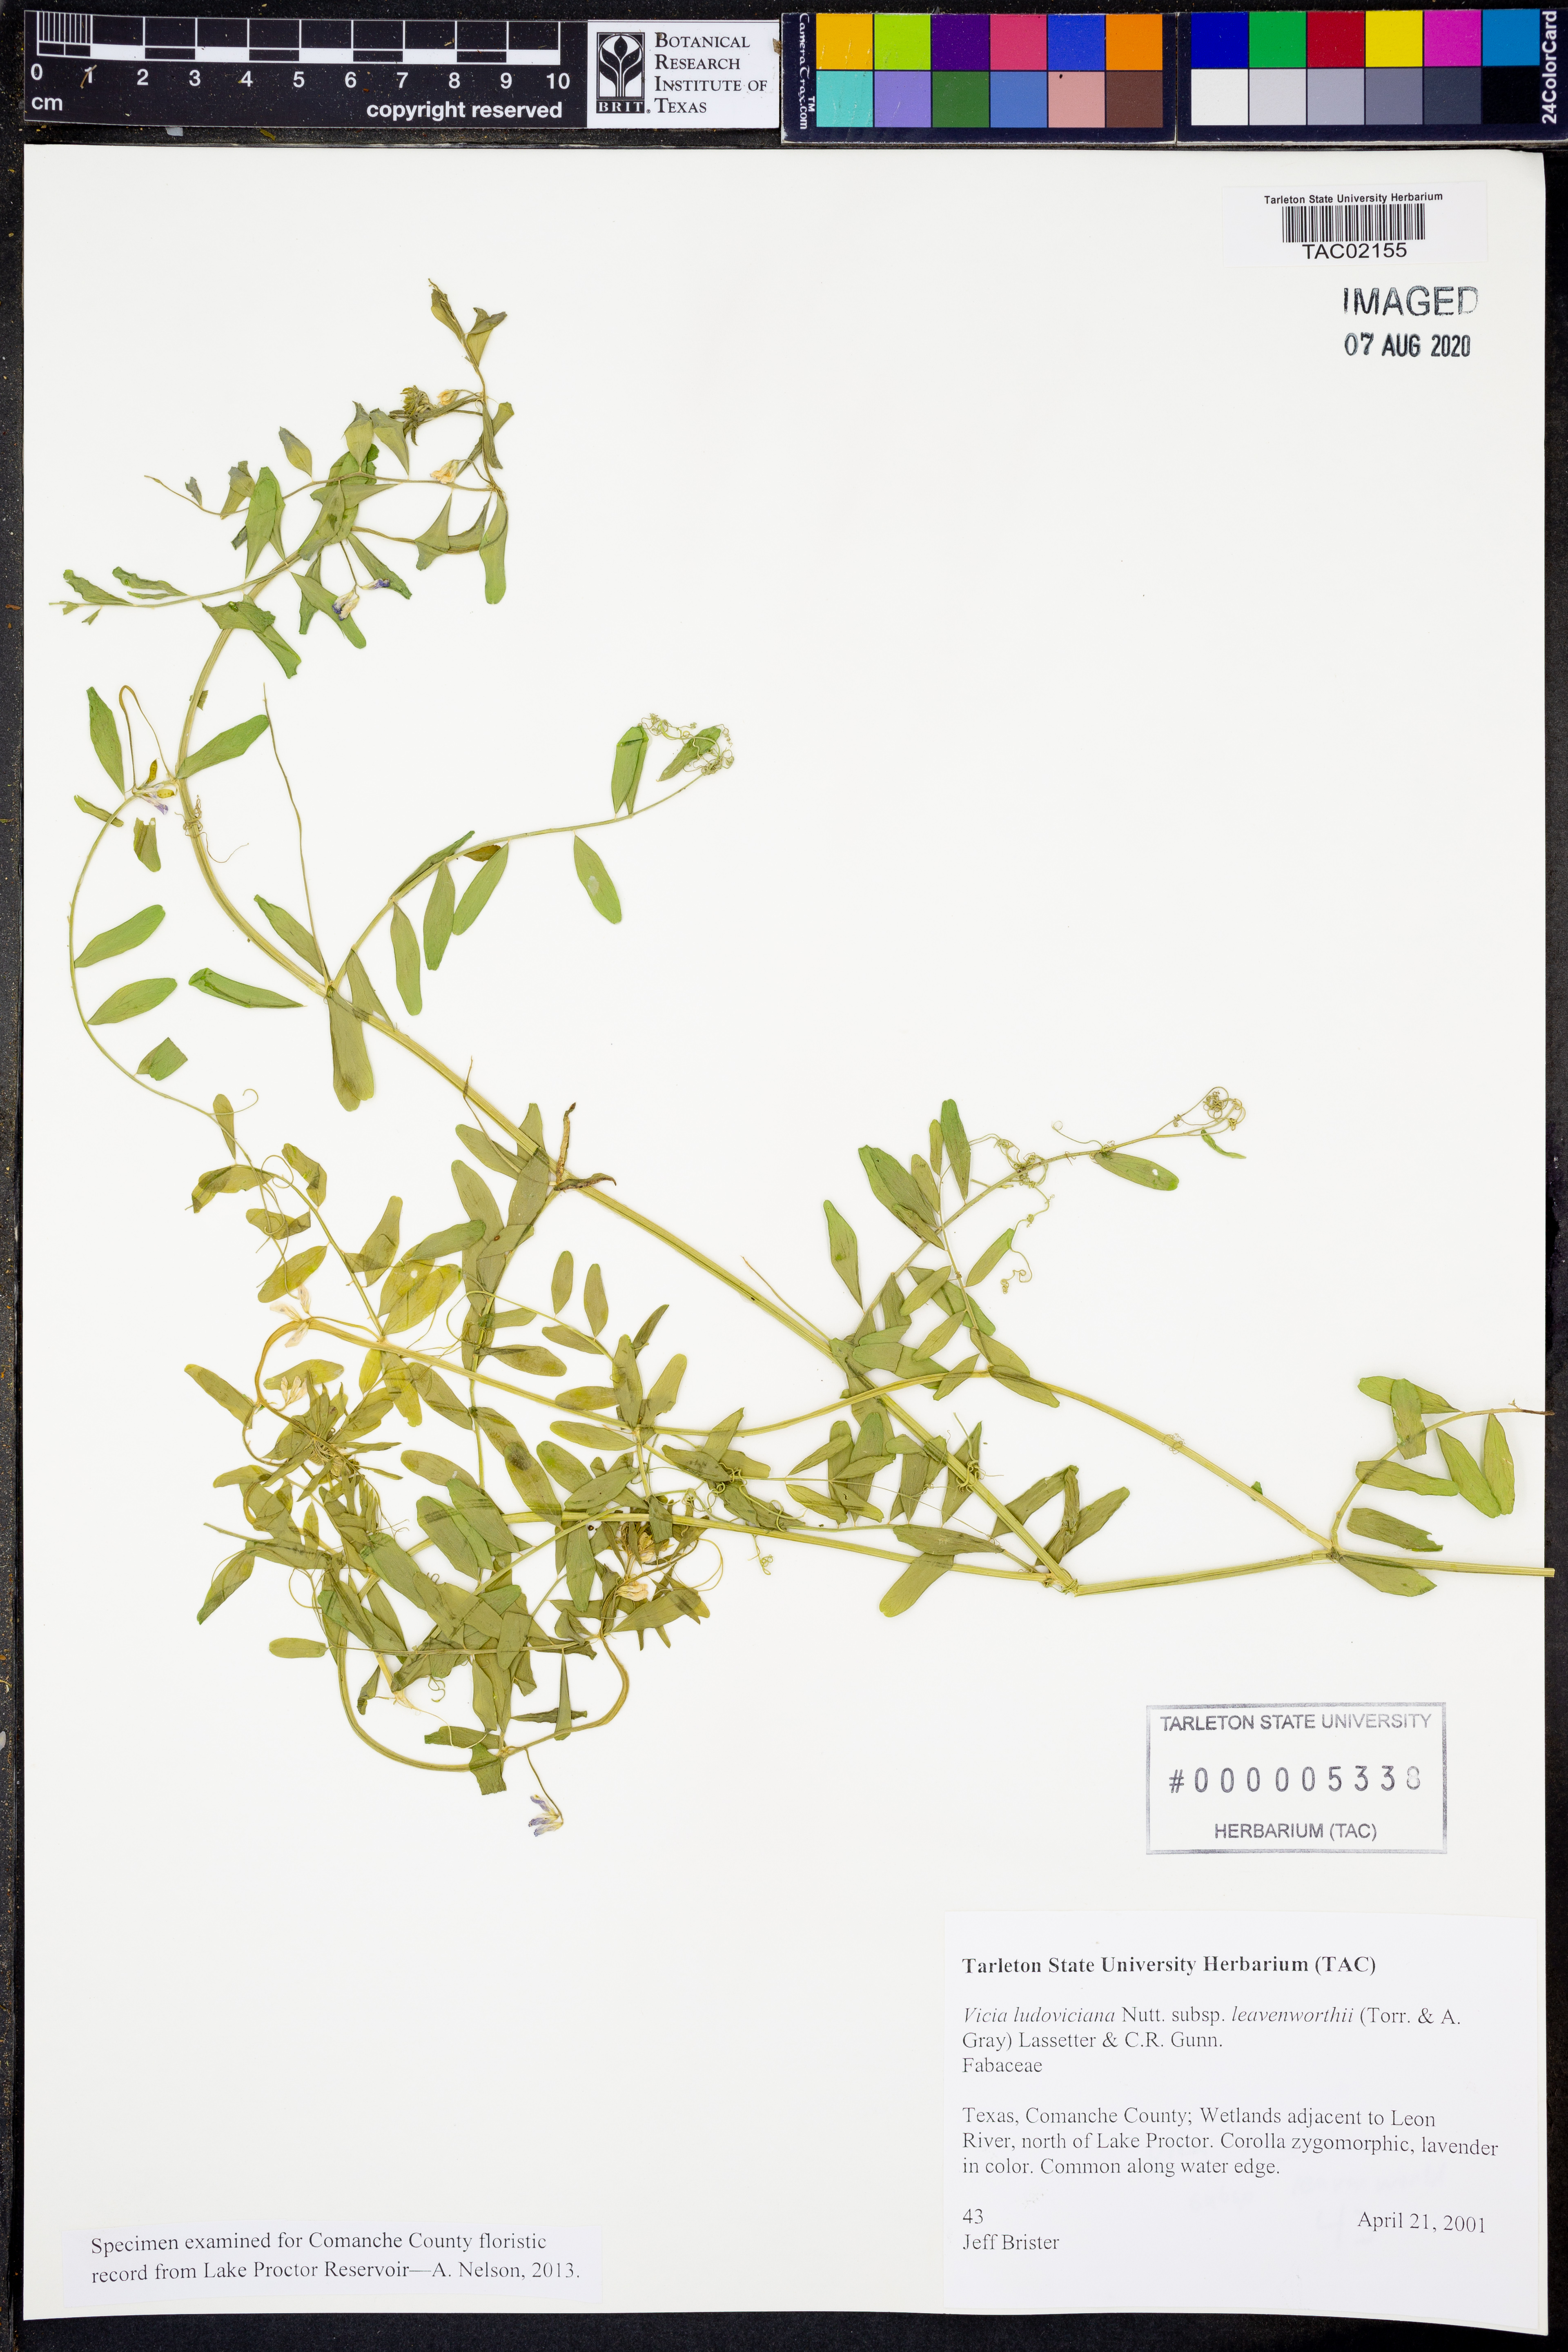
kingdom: Plantae
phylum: Tracheophyta
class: Magnoliopsida
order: Fabales
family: Fabaceae
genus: Vicia
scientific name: Vicia ludoviciana
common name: Louisiana vetch
